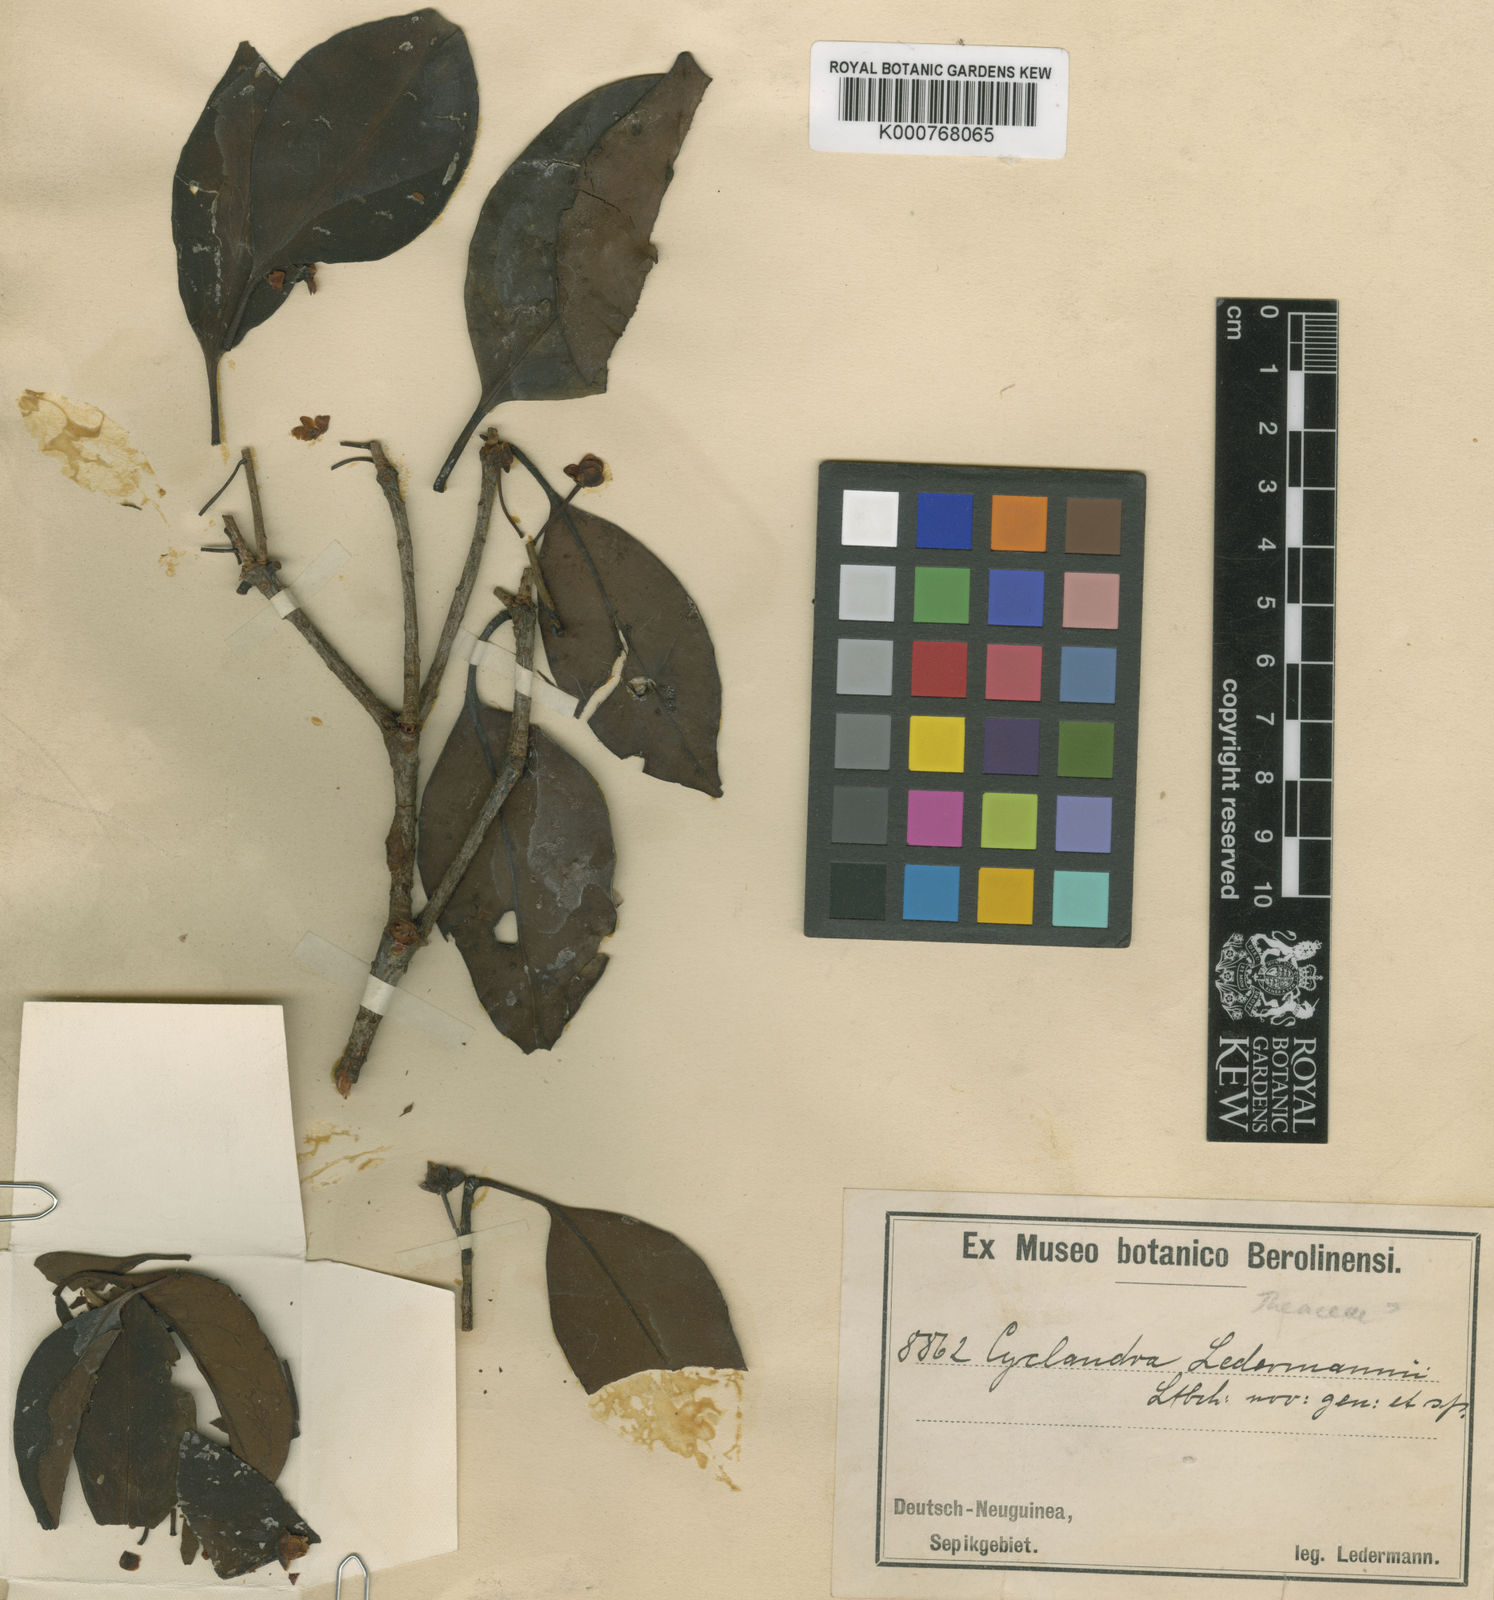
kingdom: Plantae
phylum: Tracheophyta
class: Magnoliopsida
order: Ericales
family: Pentaphylacaceae
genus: Ternstroemia
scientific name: Ternstroemia ledermannii
